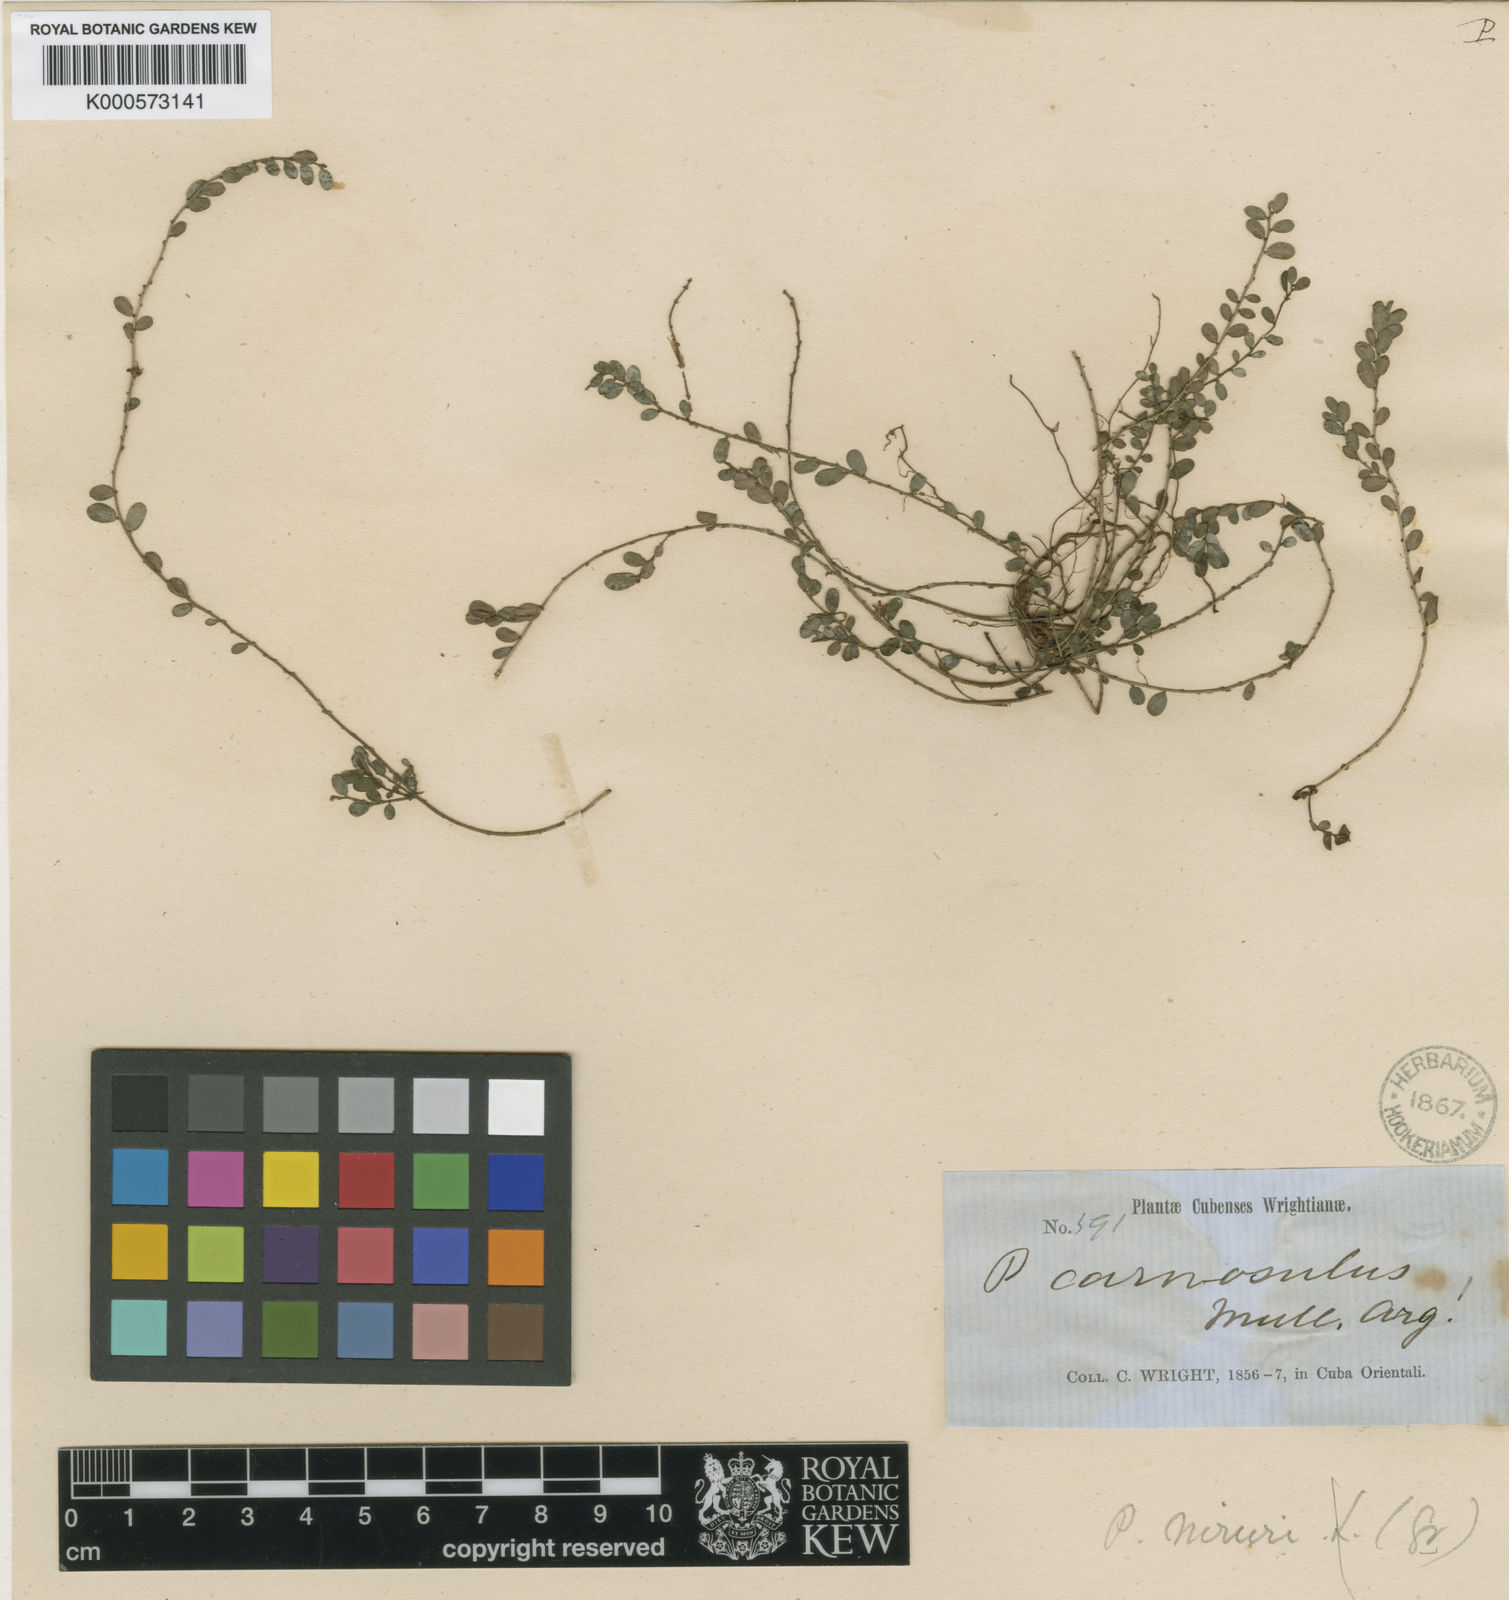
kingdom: Plantae
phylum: Tracheophyta
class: Magnoliopsida
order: Malpighiales
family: Phyllanthaceae
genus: Phyllanthus
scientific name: Phyllanthus
